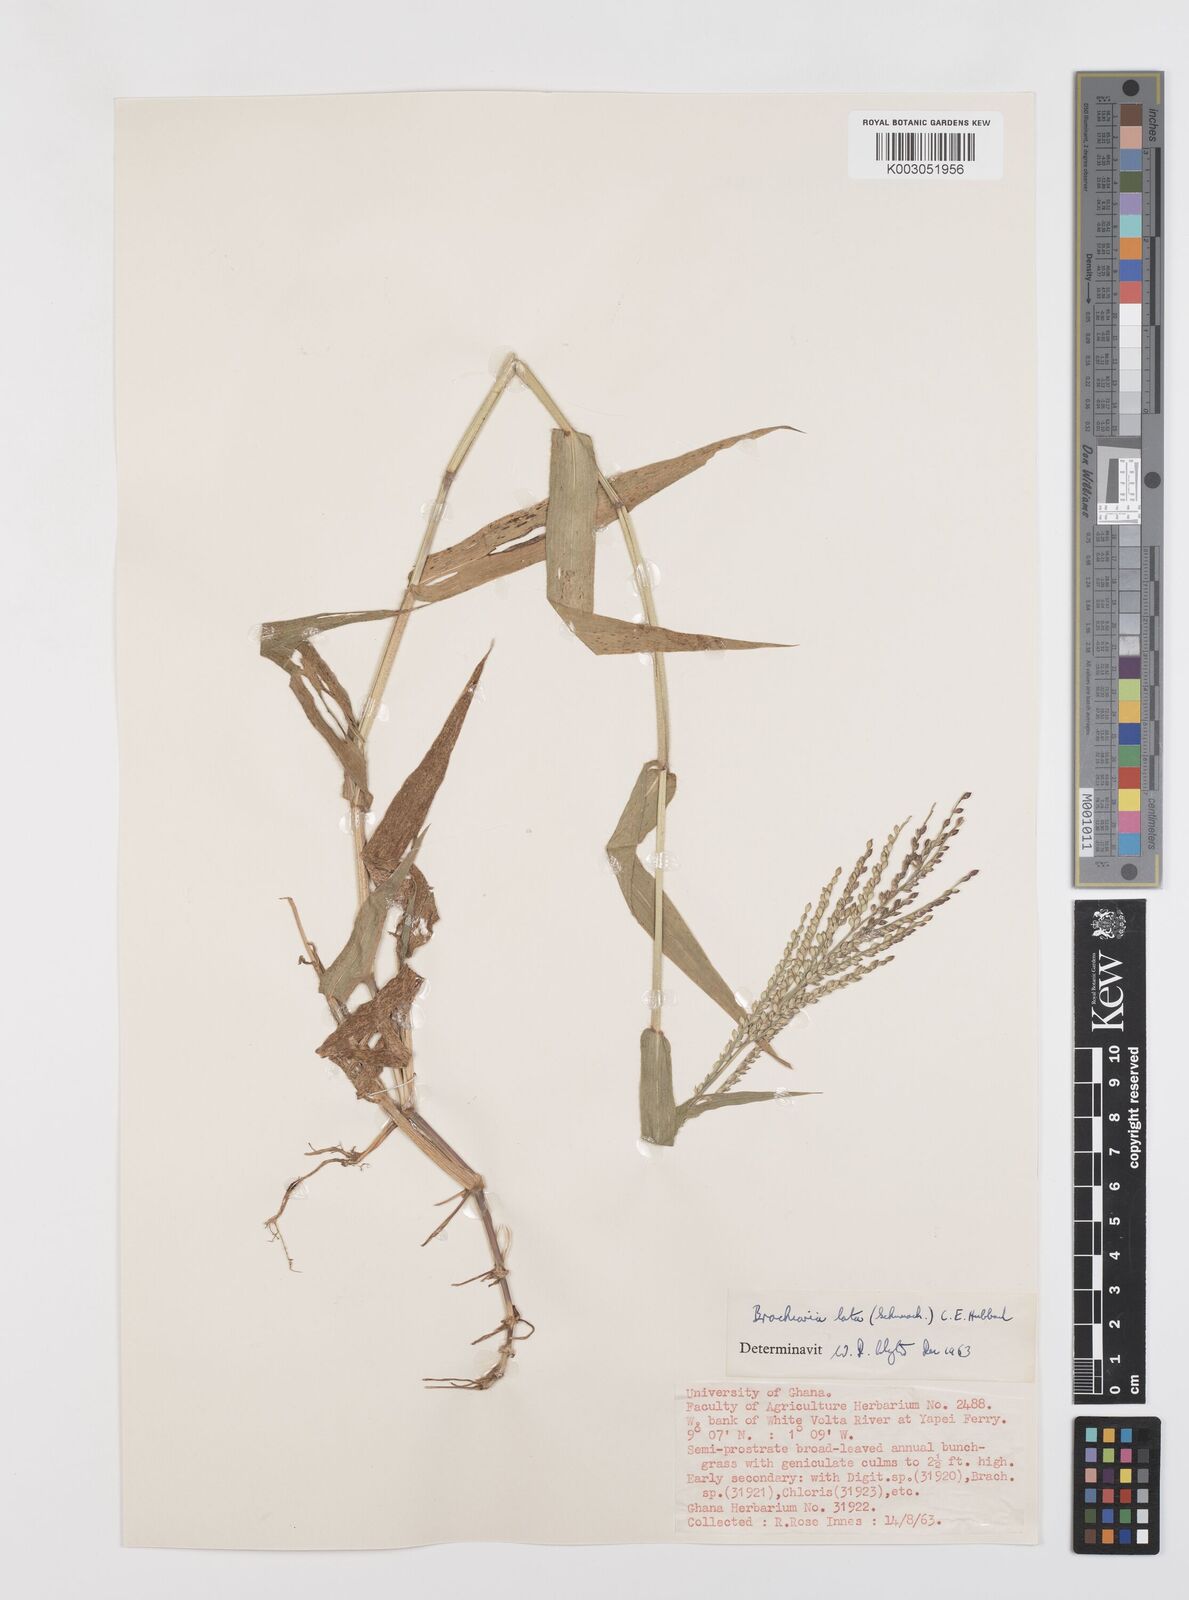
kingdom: Plantae
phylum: Tracheophyta
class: Liliopsida
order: Poales
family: Poaceae
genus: Urochloa
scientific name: Urochloa lata
